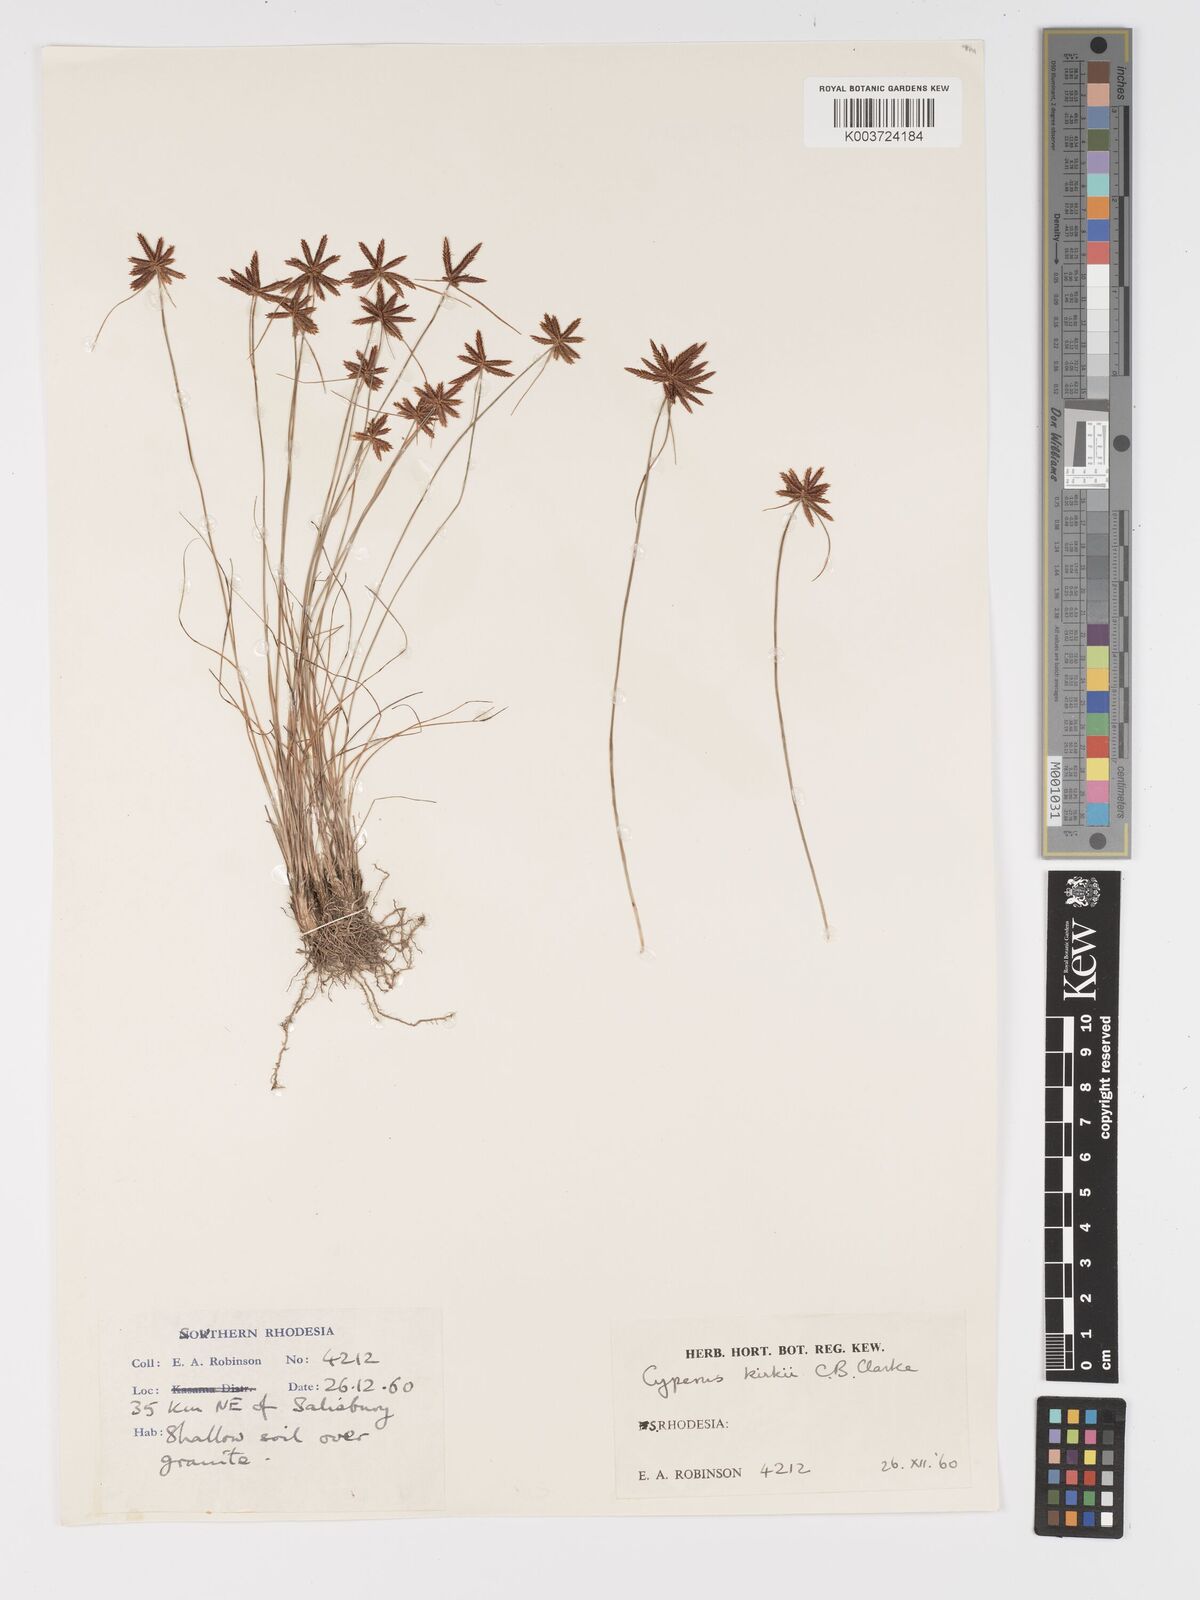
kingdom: Plantae
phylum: Tracheophyta
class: Liliopsida
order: Poales
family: Cyperaceae
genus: Cyperus
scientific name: Cyperus rupestris
